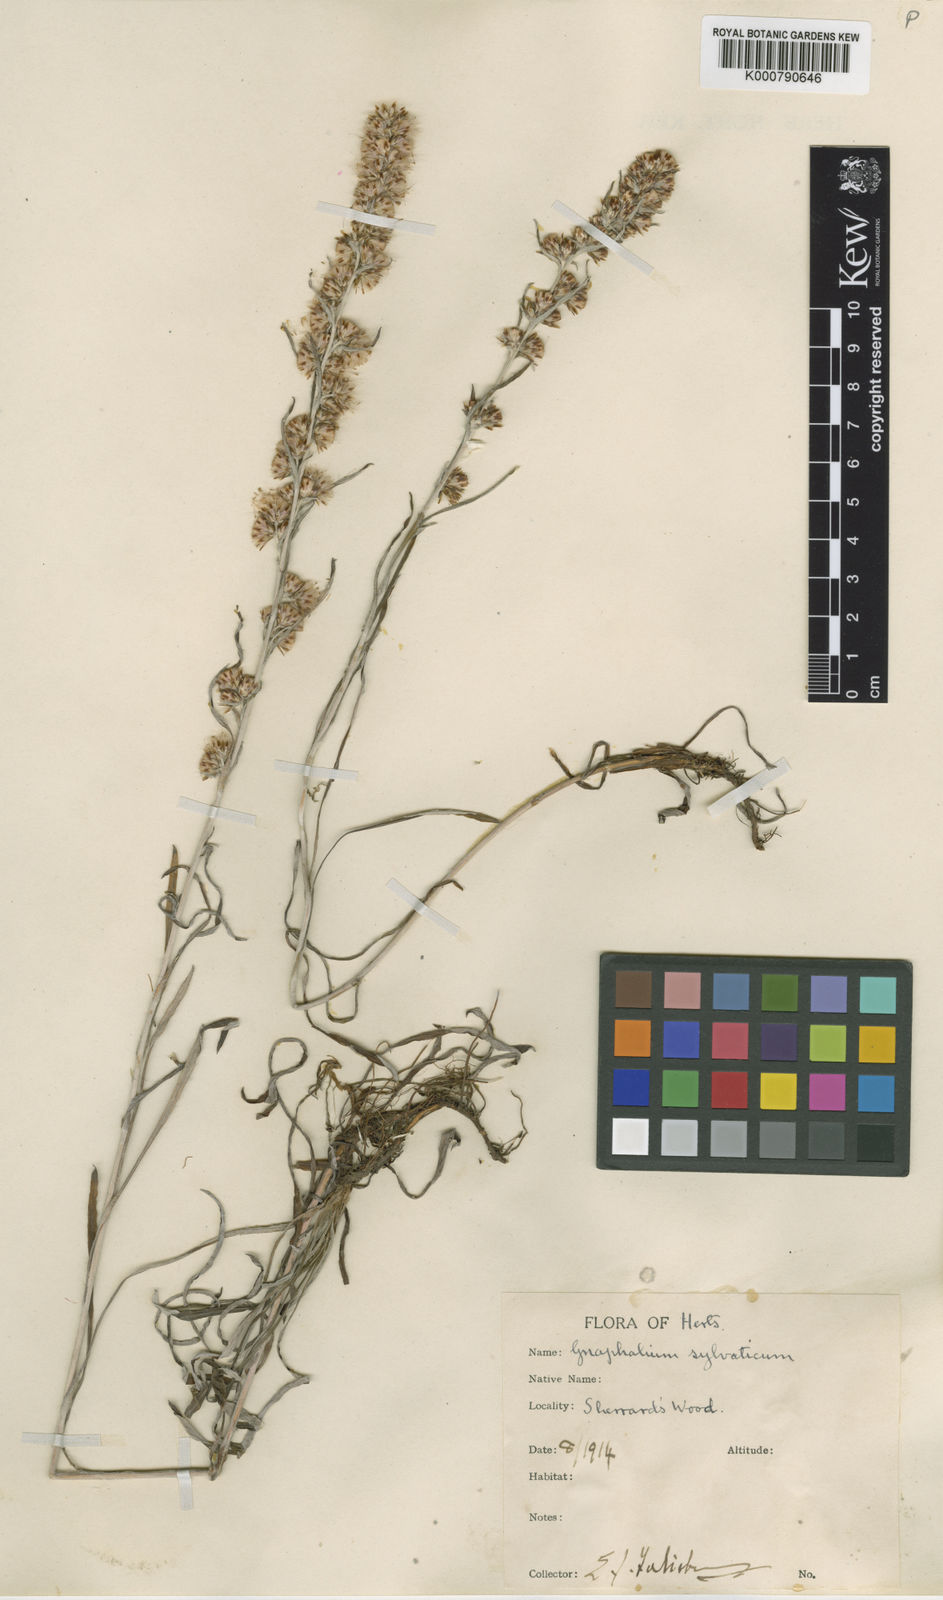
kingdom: Plantae
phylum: Tracheophyta
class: Magnoliopsida
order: Asterales
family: Asteraceae
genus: Omalotheca
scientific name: Omalotheca sylvatica
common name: Heath cudweed
